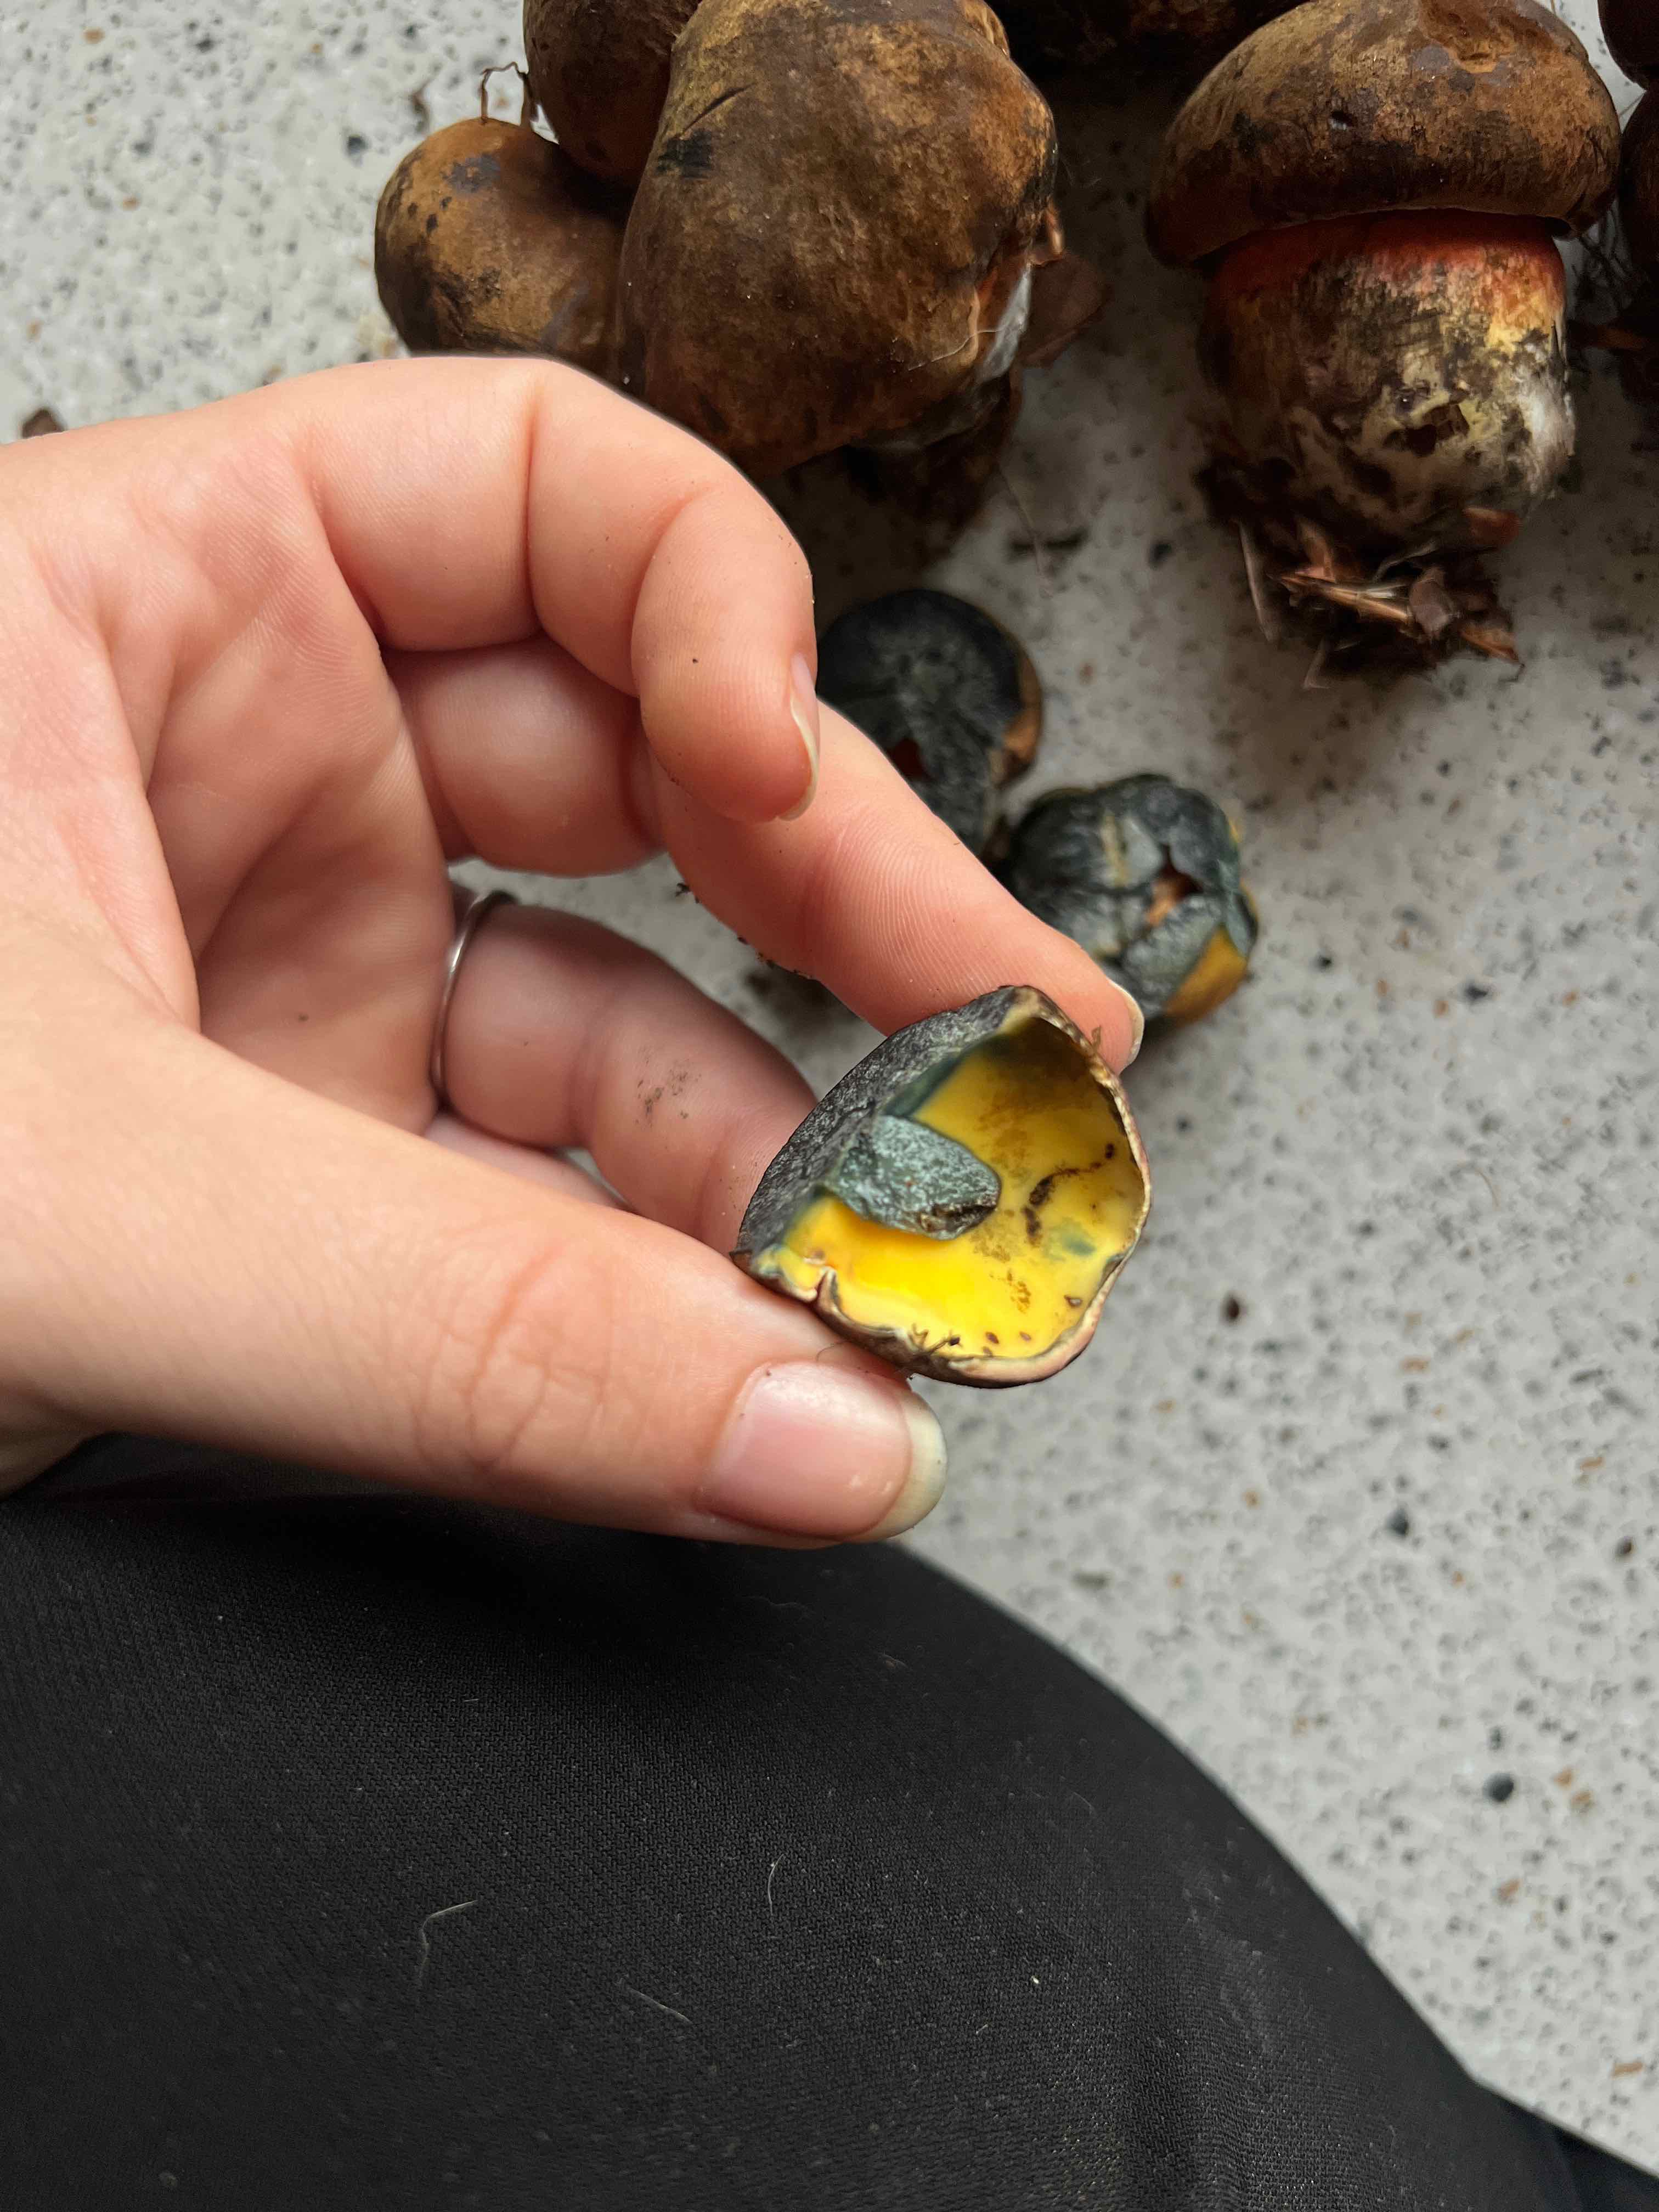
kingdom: Fungi
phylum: Basidiomycota
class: Agaricomycetes
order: Boletales
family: Boletaceae
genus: Neoboletus
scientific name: Neoboletus erythropus
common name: punktstokket indigorørhat
